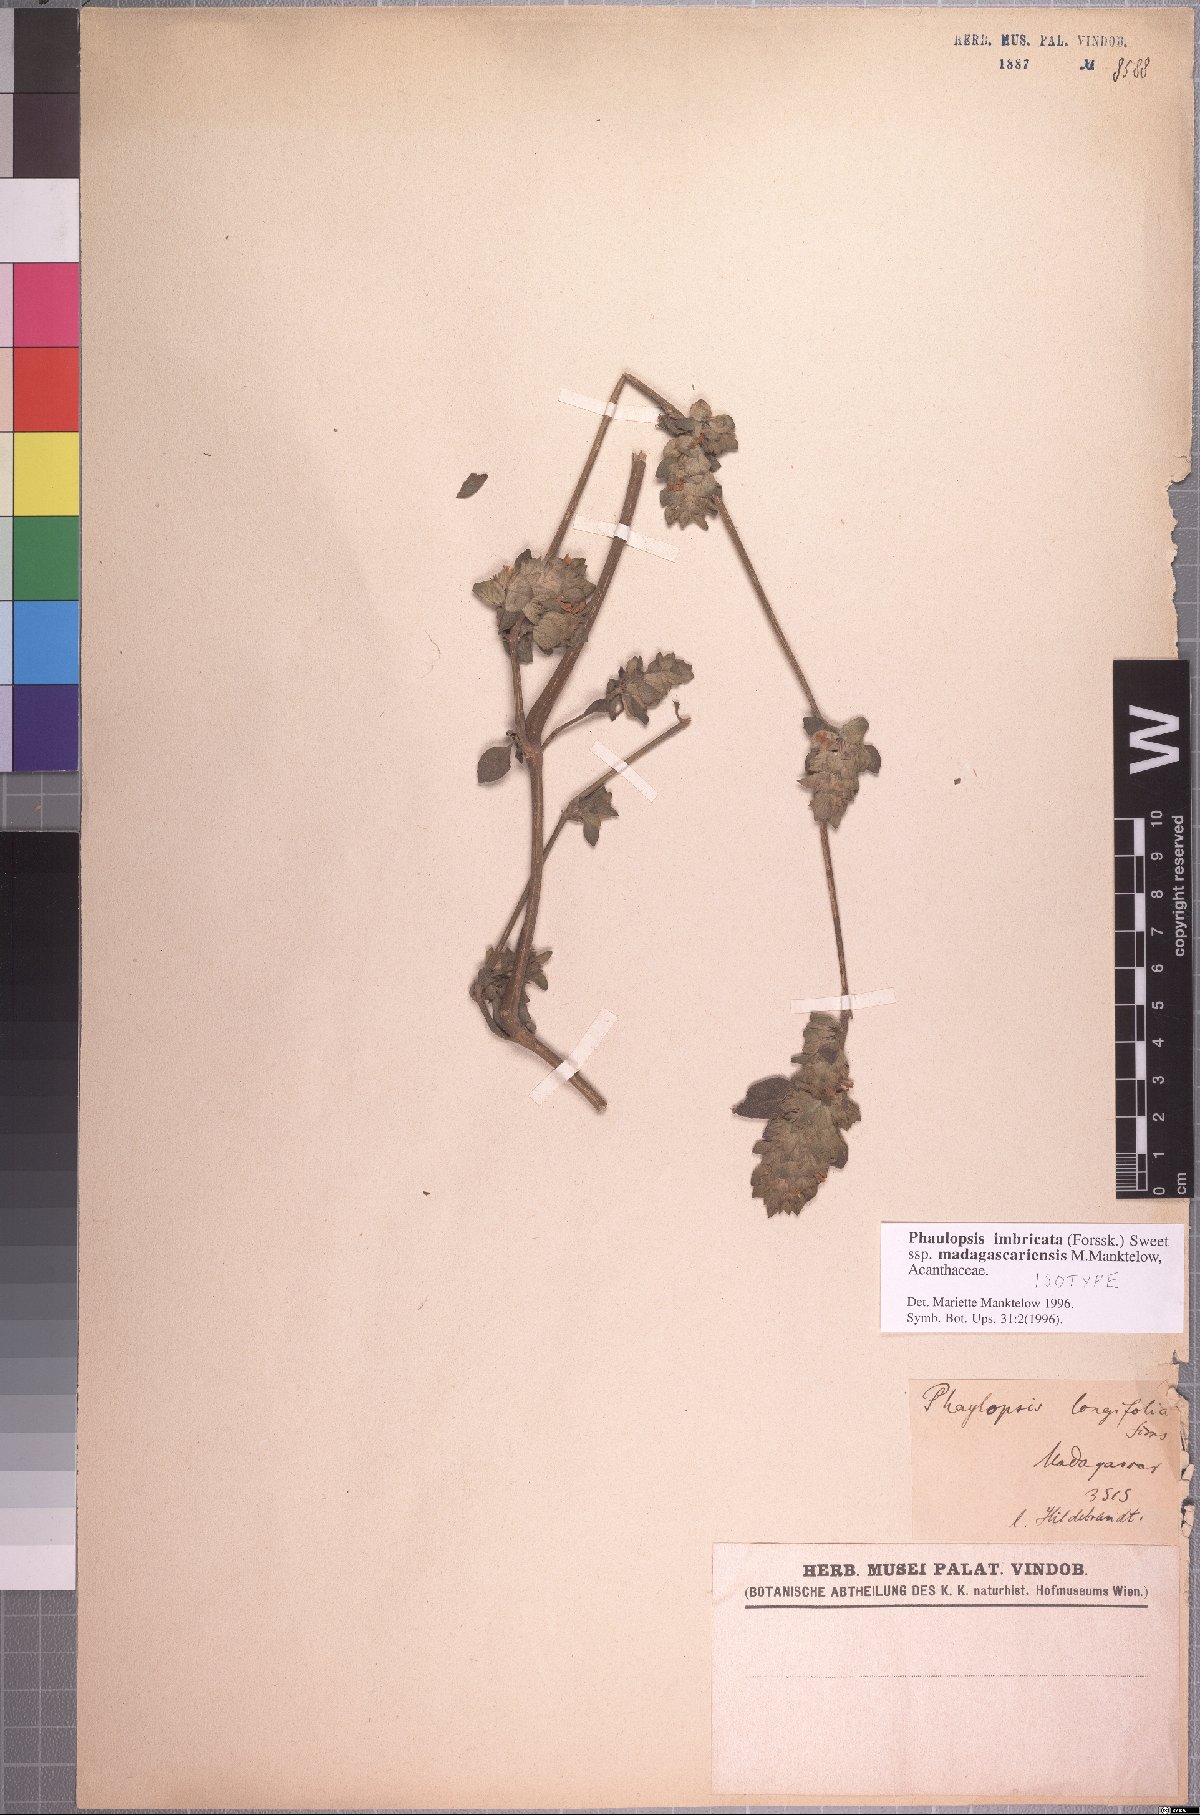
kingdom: Plantae
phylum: Tracheophyta
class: Magnoliopsida
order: Lamiales
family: Acanthaceae
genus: Phaulopsis
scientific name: Phaulopsis imbricata
